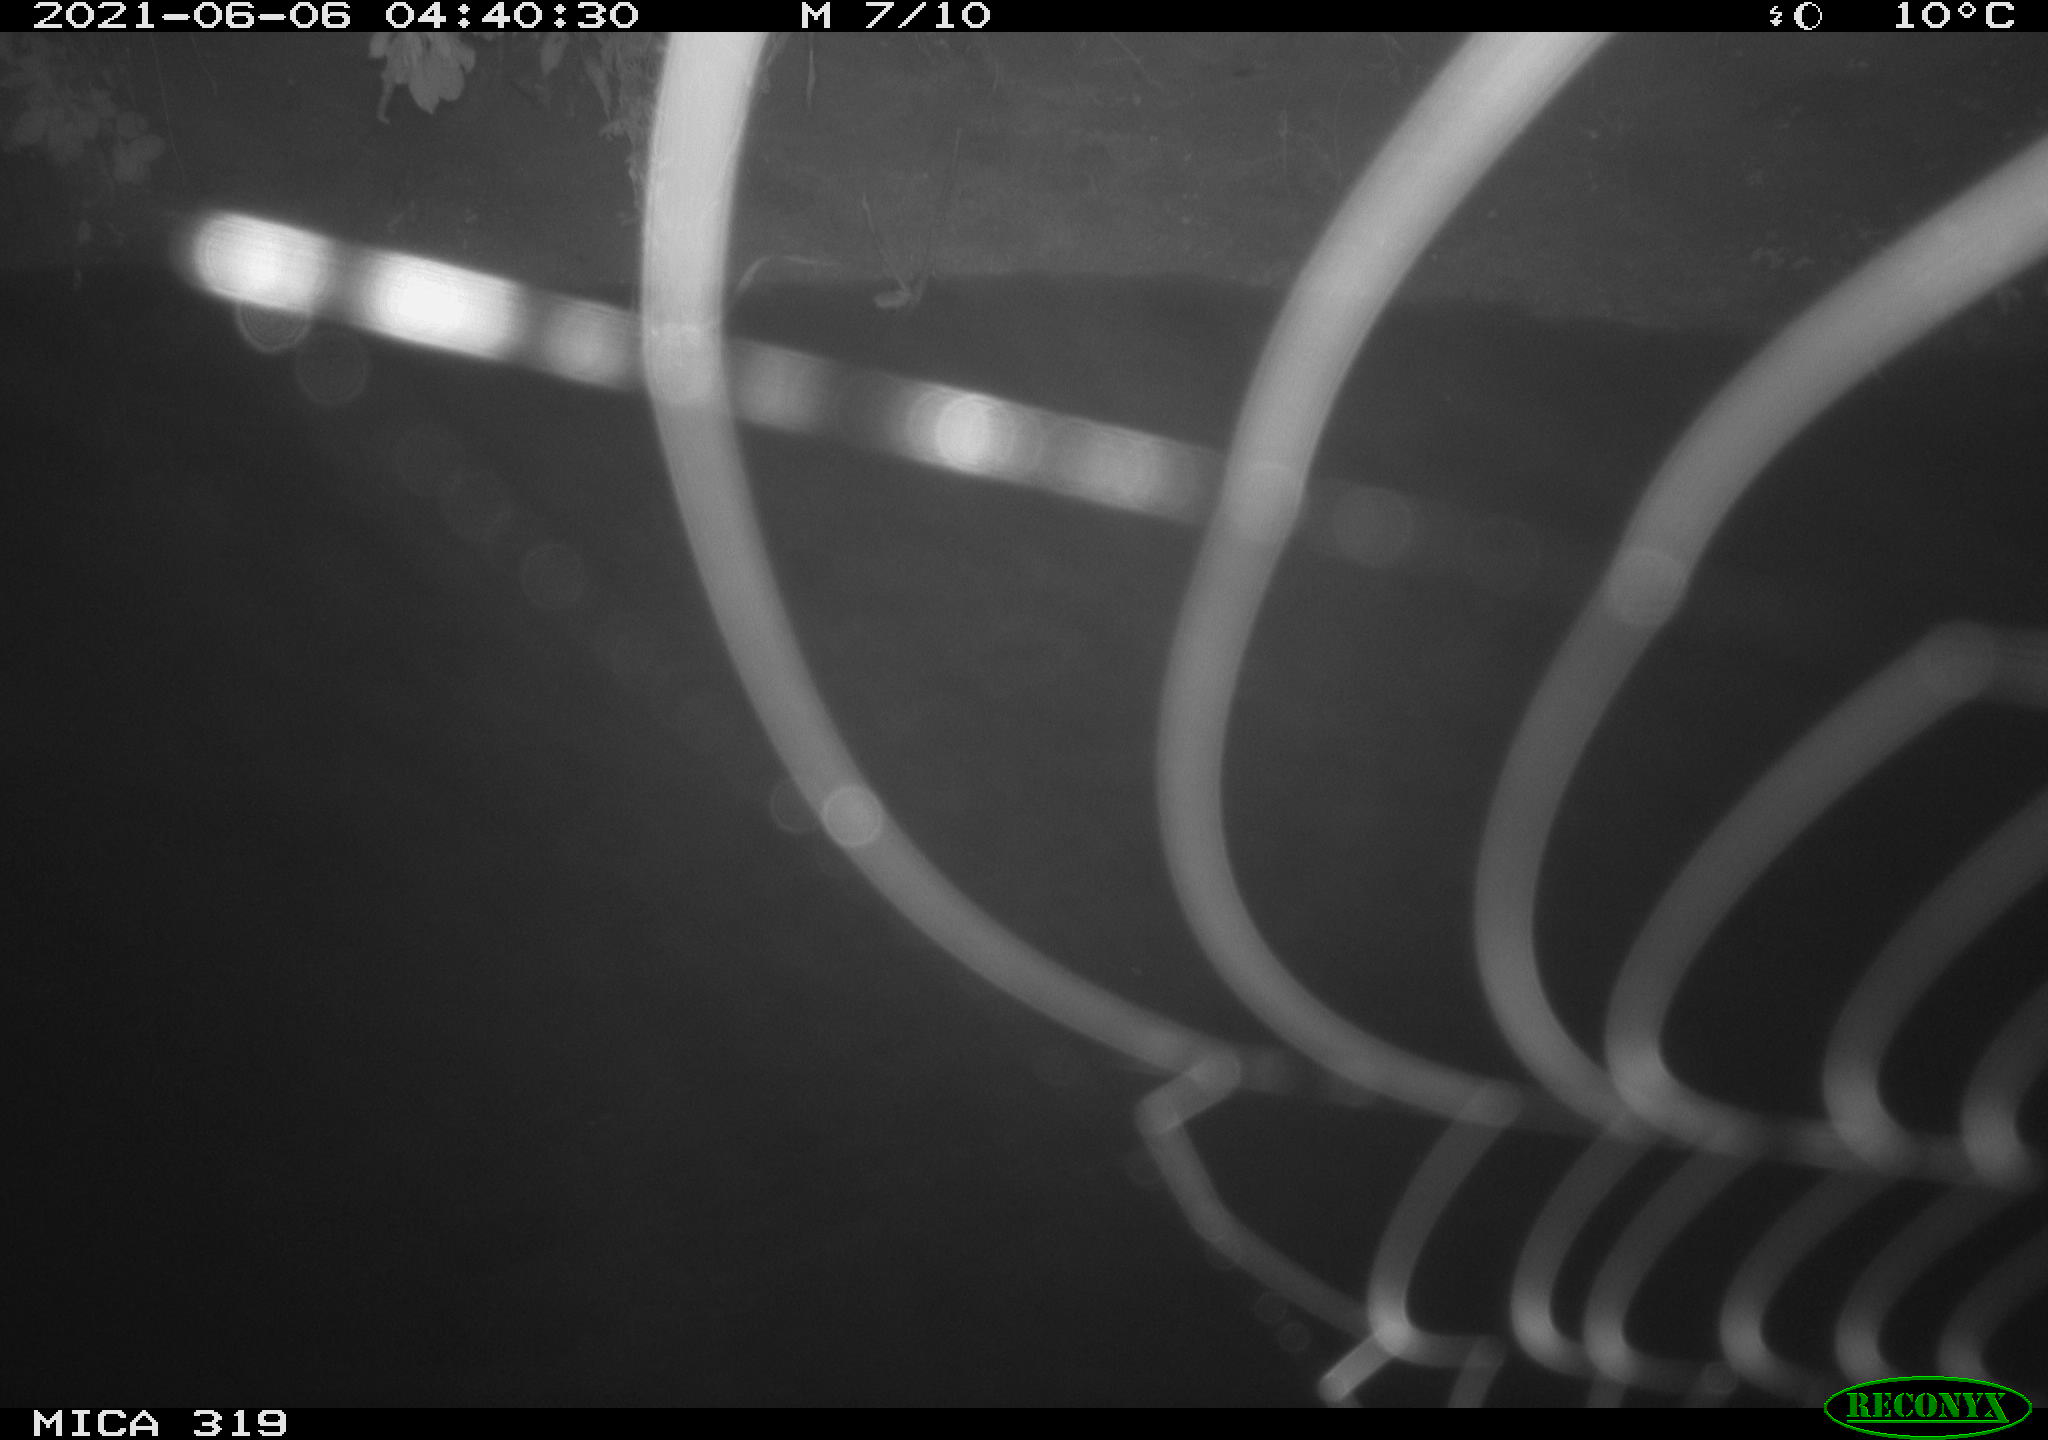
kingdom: Animalia
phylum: Chordata
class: Aves
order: Anseriformes
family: Anatidae
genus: Anas
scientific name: Anas platyrhynchos
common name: Mallard
